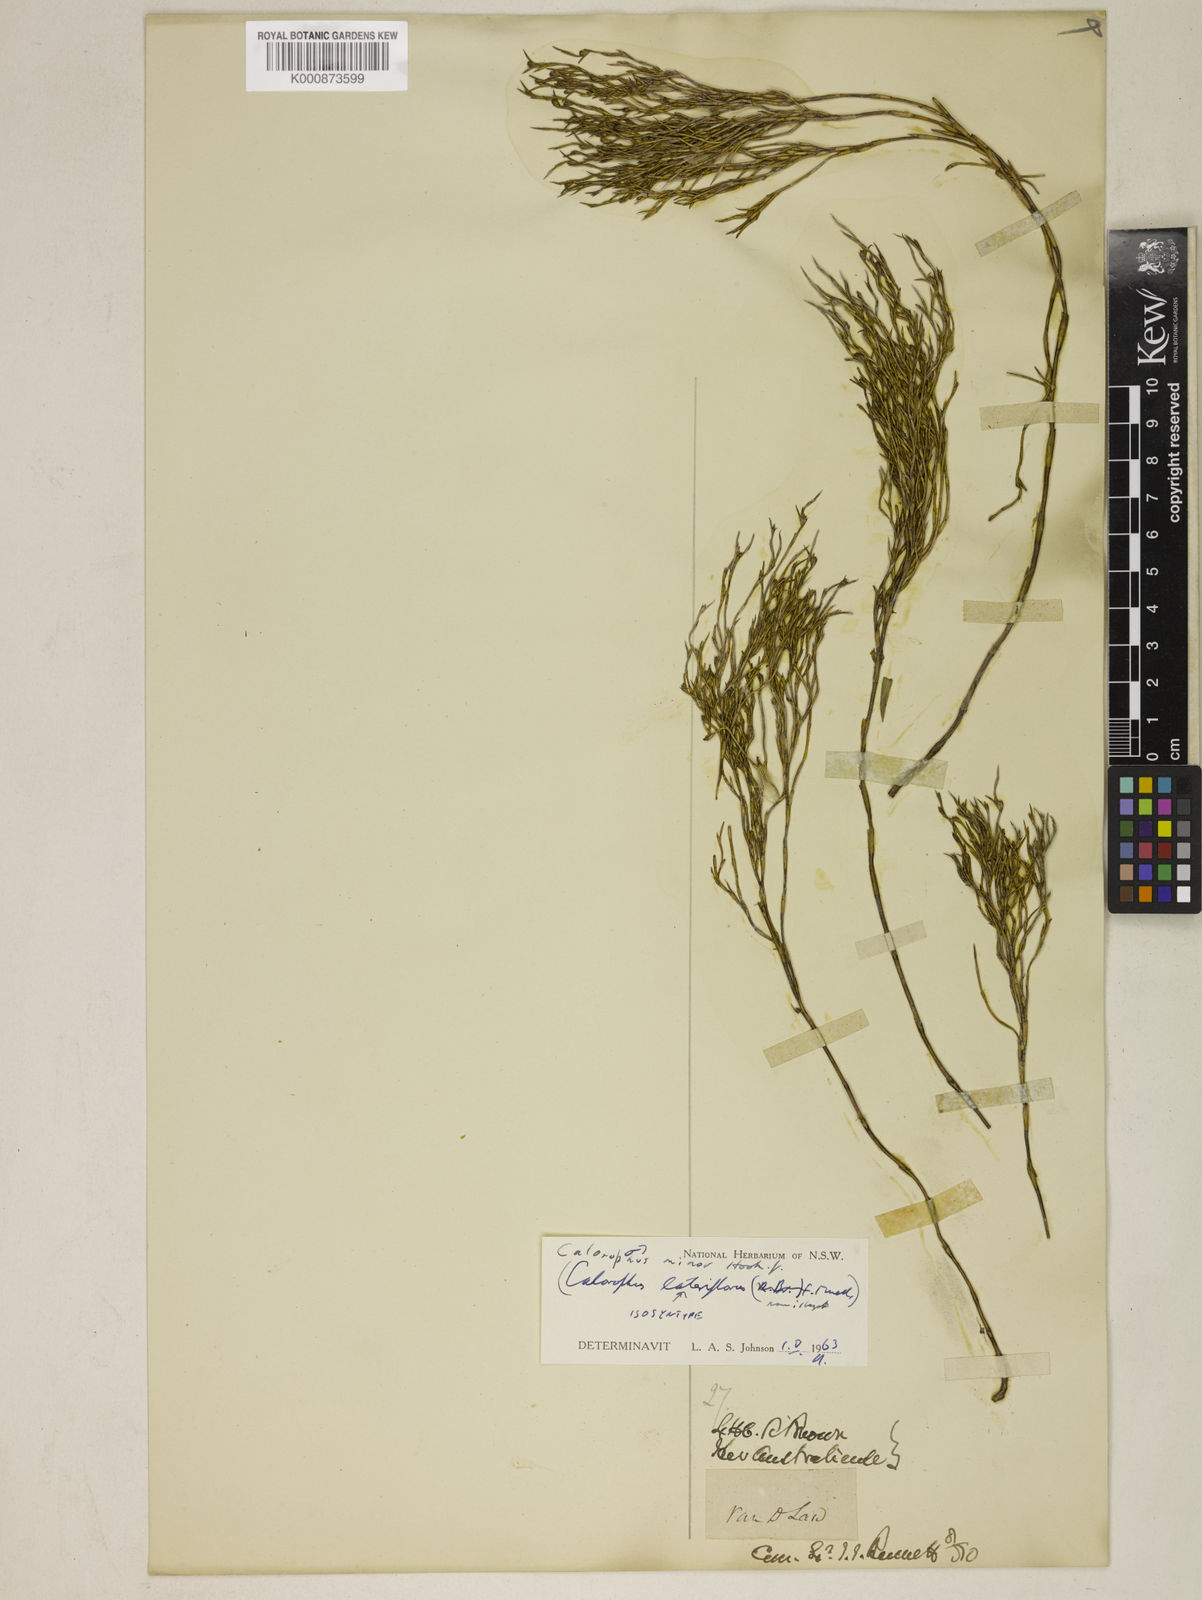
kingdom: Plantae
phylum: Tracheophyta
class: Liliopsida
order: Poales
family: Restionaceae
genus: Empodisma
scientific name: Empodisma minus
